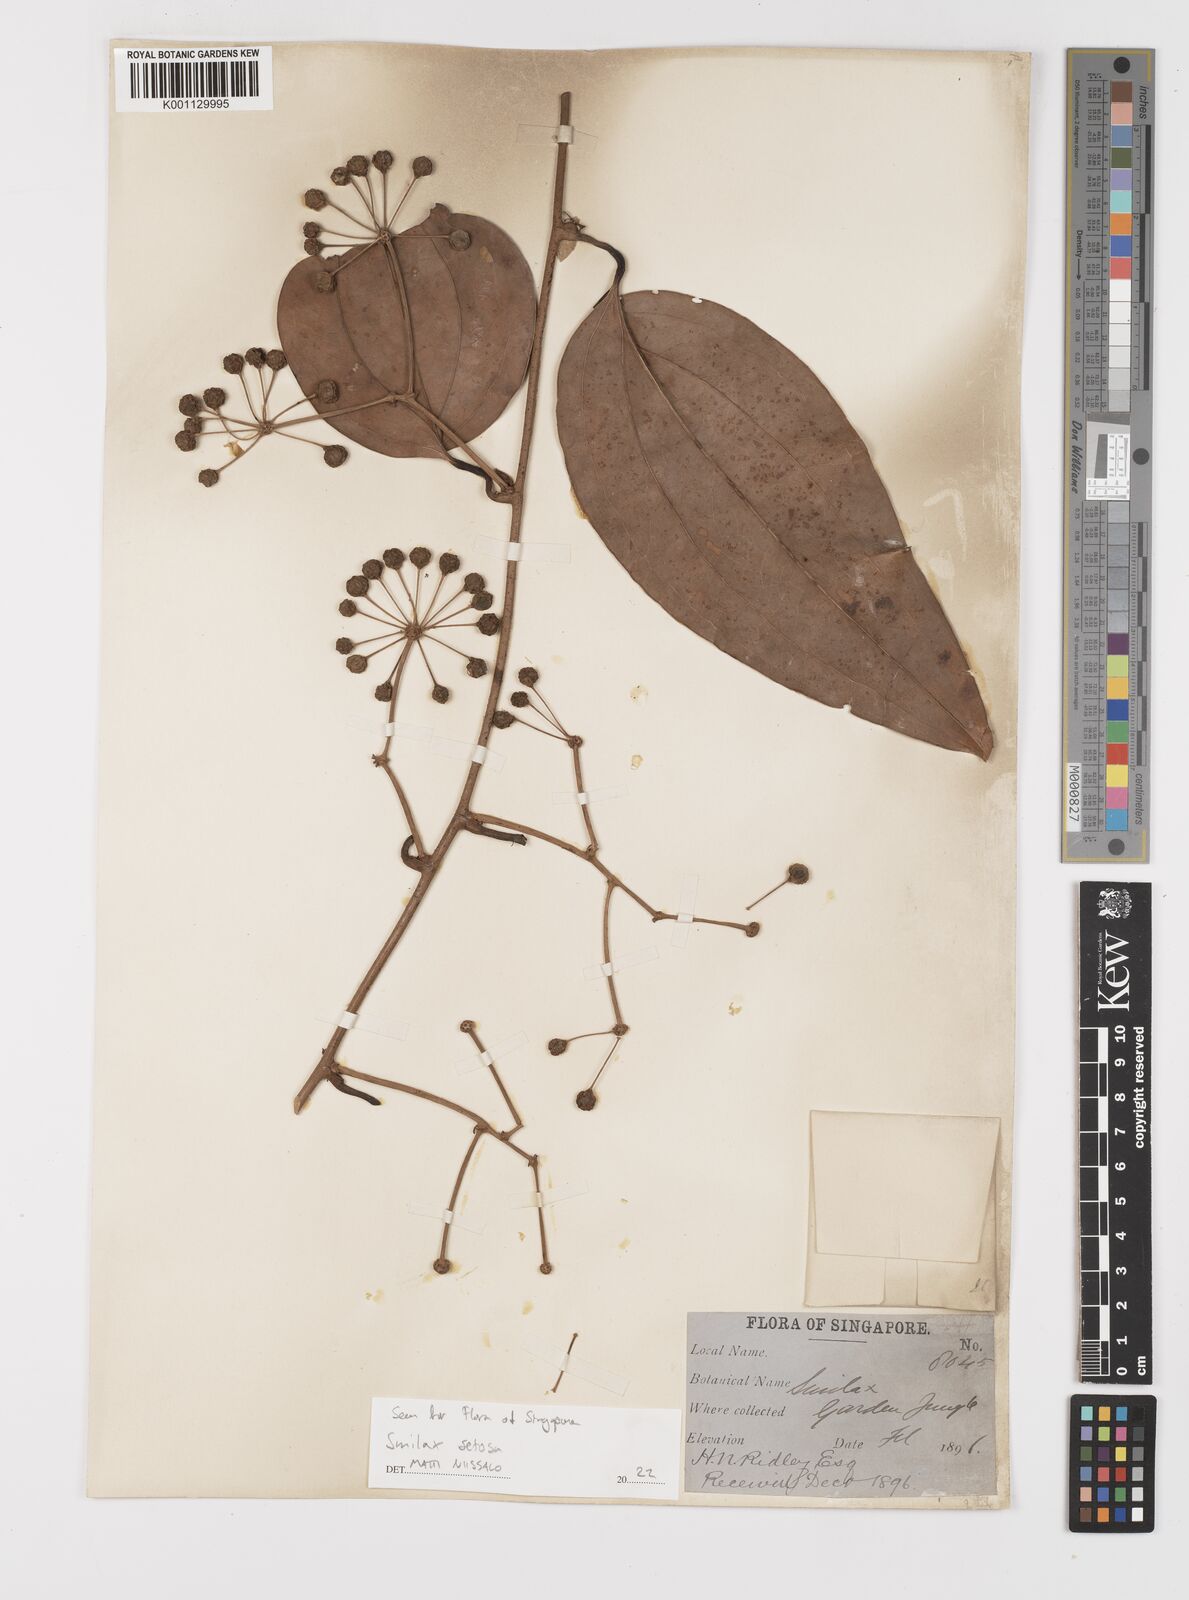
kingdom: Plantae
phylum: Tracheophyta
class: Liliopsida
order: Liliales
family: Smilacaceae
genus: Smilax
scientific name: Smilax setosa
